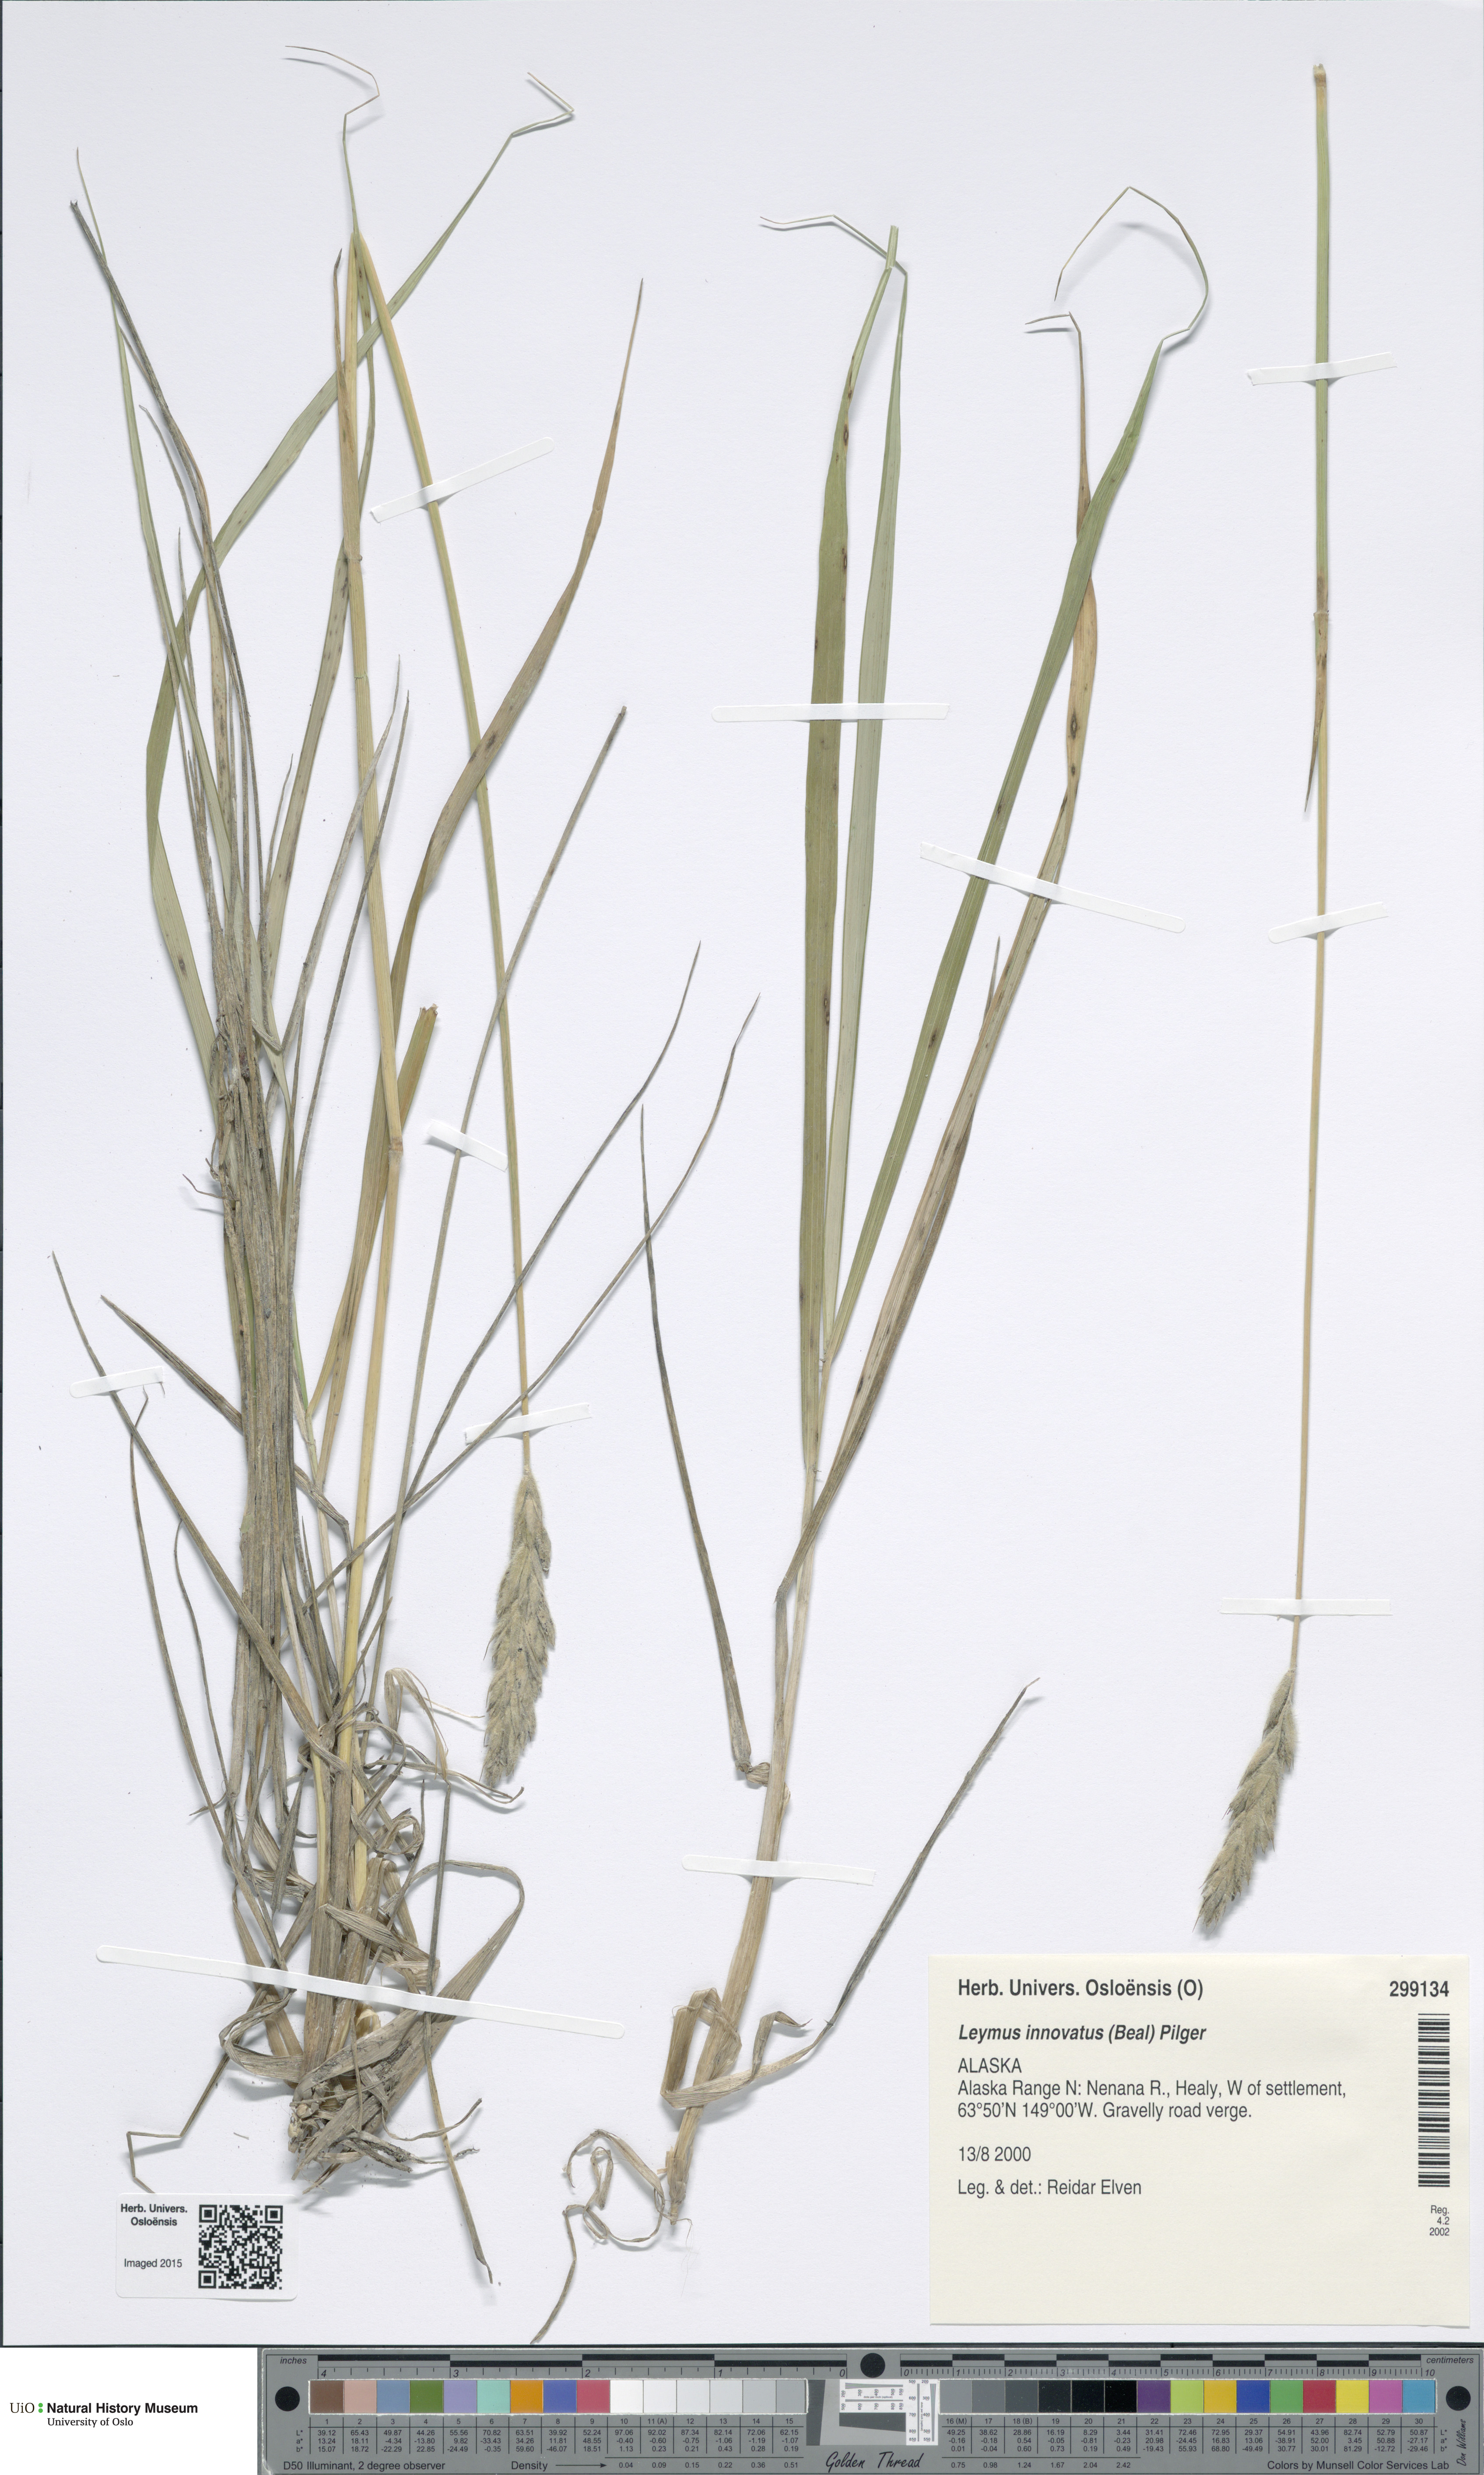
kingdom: Plantae
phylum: Tracheophyta
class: Liliopsida
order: Poales
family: Poaceae
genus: Leymus
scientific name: Leymus innovatus
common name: Boreal wild rye
